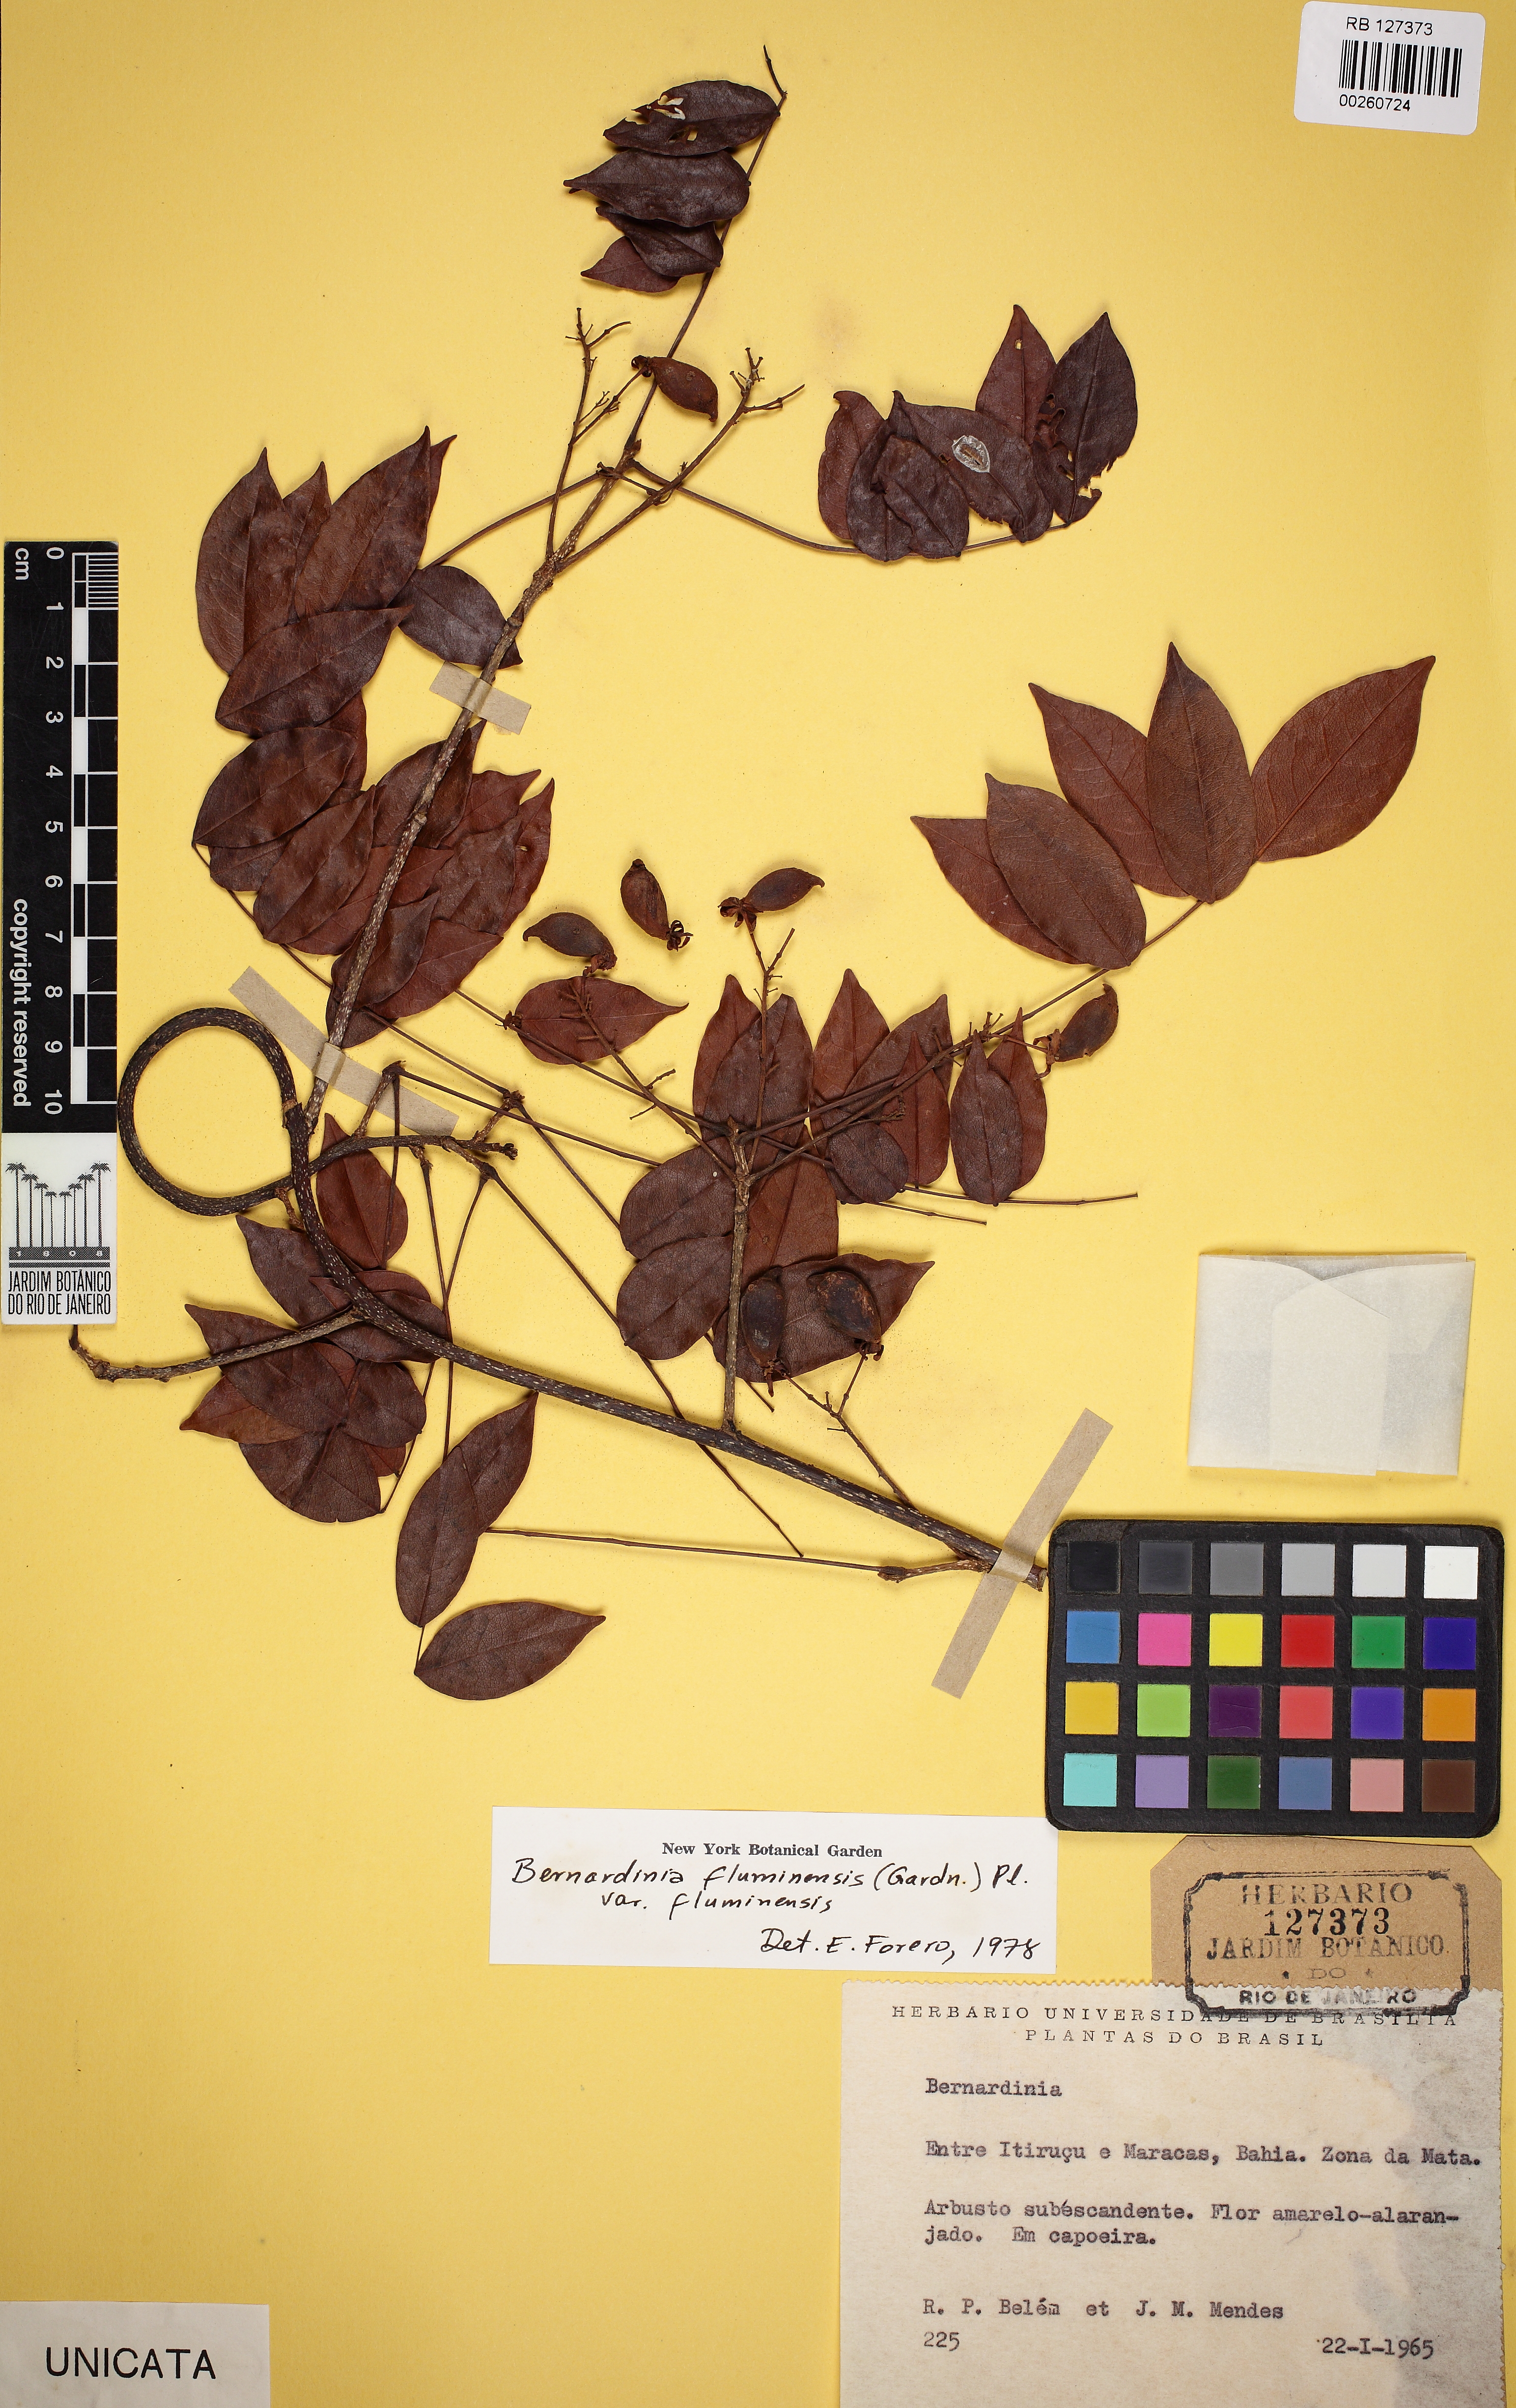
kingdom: Plantae
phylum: Tracheophyta
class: Magnoliopsida
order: Oxalidales
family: Connaraceae
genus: Rourea
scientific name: Rourea fluminensis
